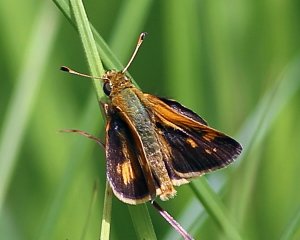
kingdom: Animalia
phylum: Arthropoda
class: Insecta
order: Lepidoptera
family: Hesperiidae
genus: Polites
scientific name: Polites coras
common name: Peck's Skipper
